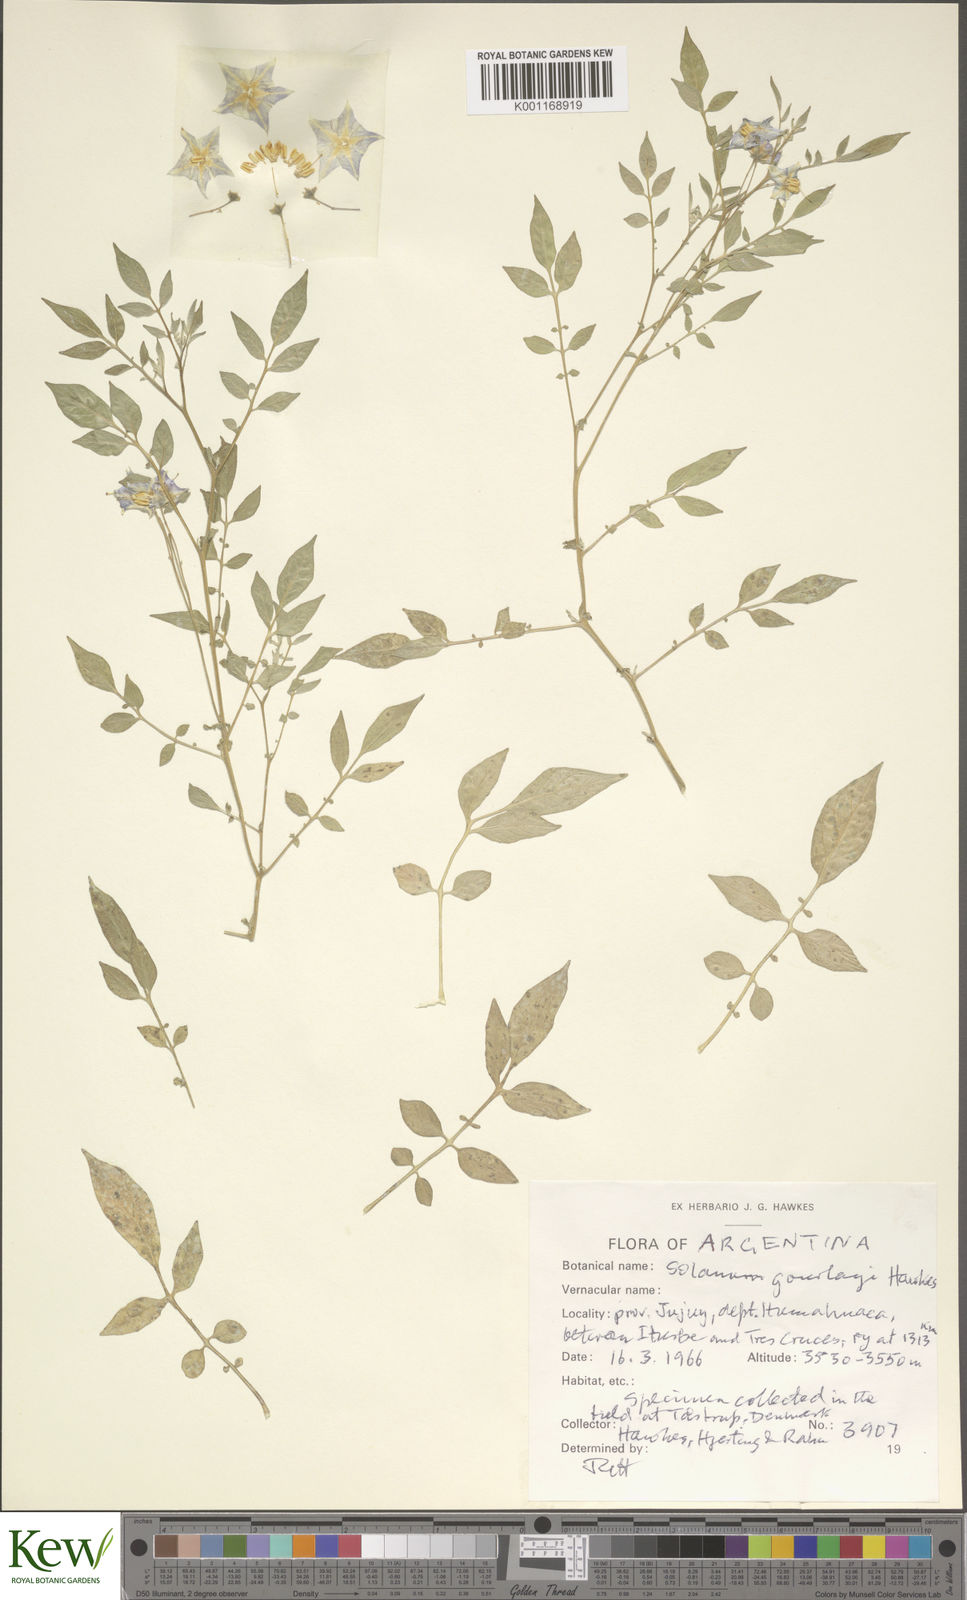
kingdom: Plantae
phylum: Tracheophyta
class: Magnoliopsida
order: Solanales
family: Solanaceae
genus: Solanum
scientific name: Solanum brevicaule
